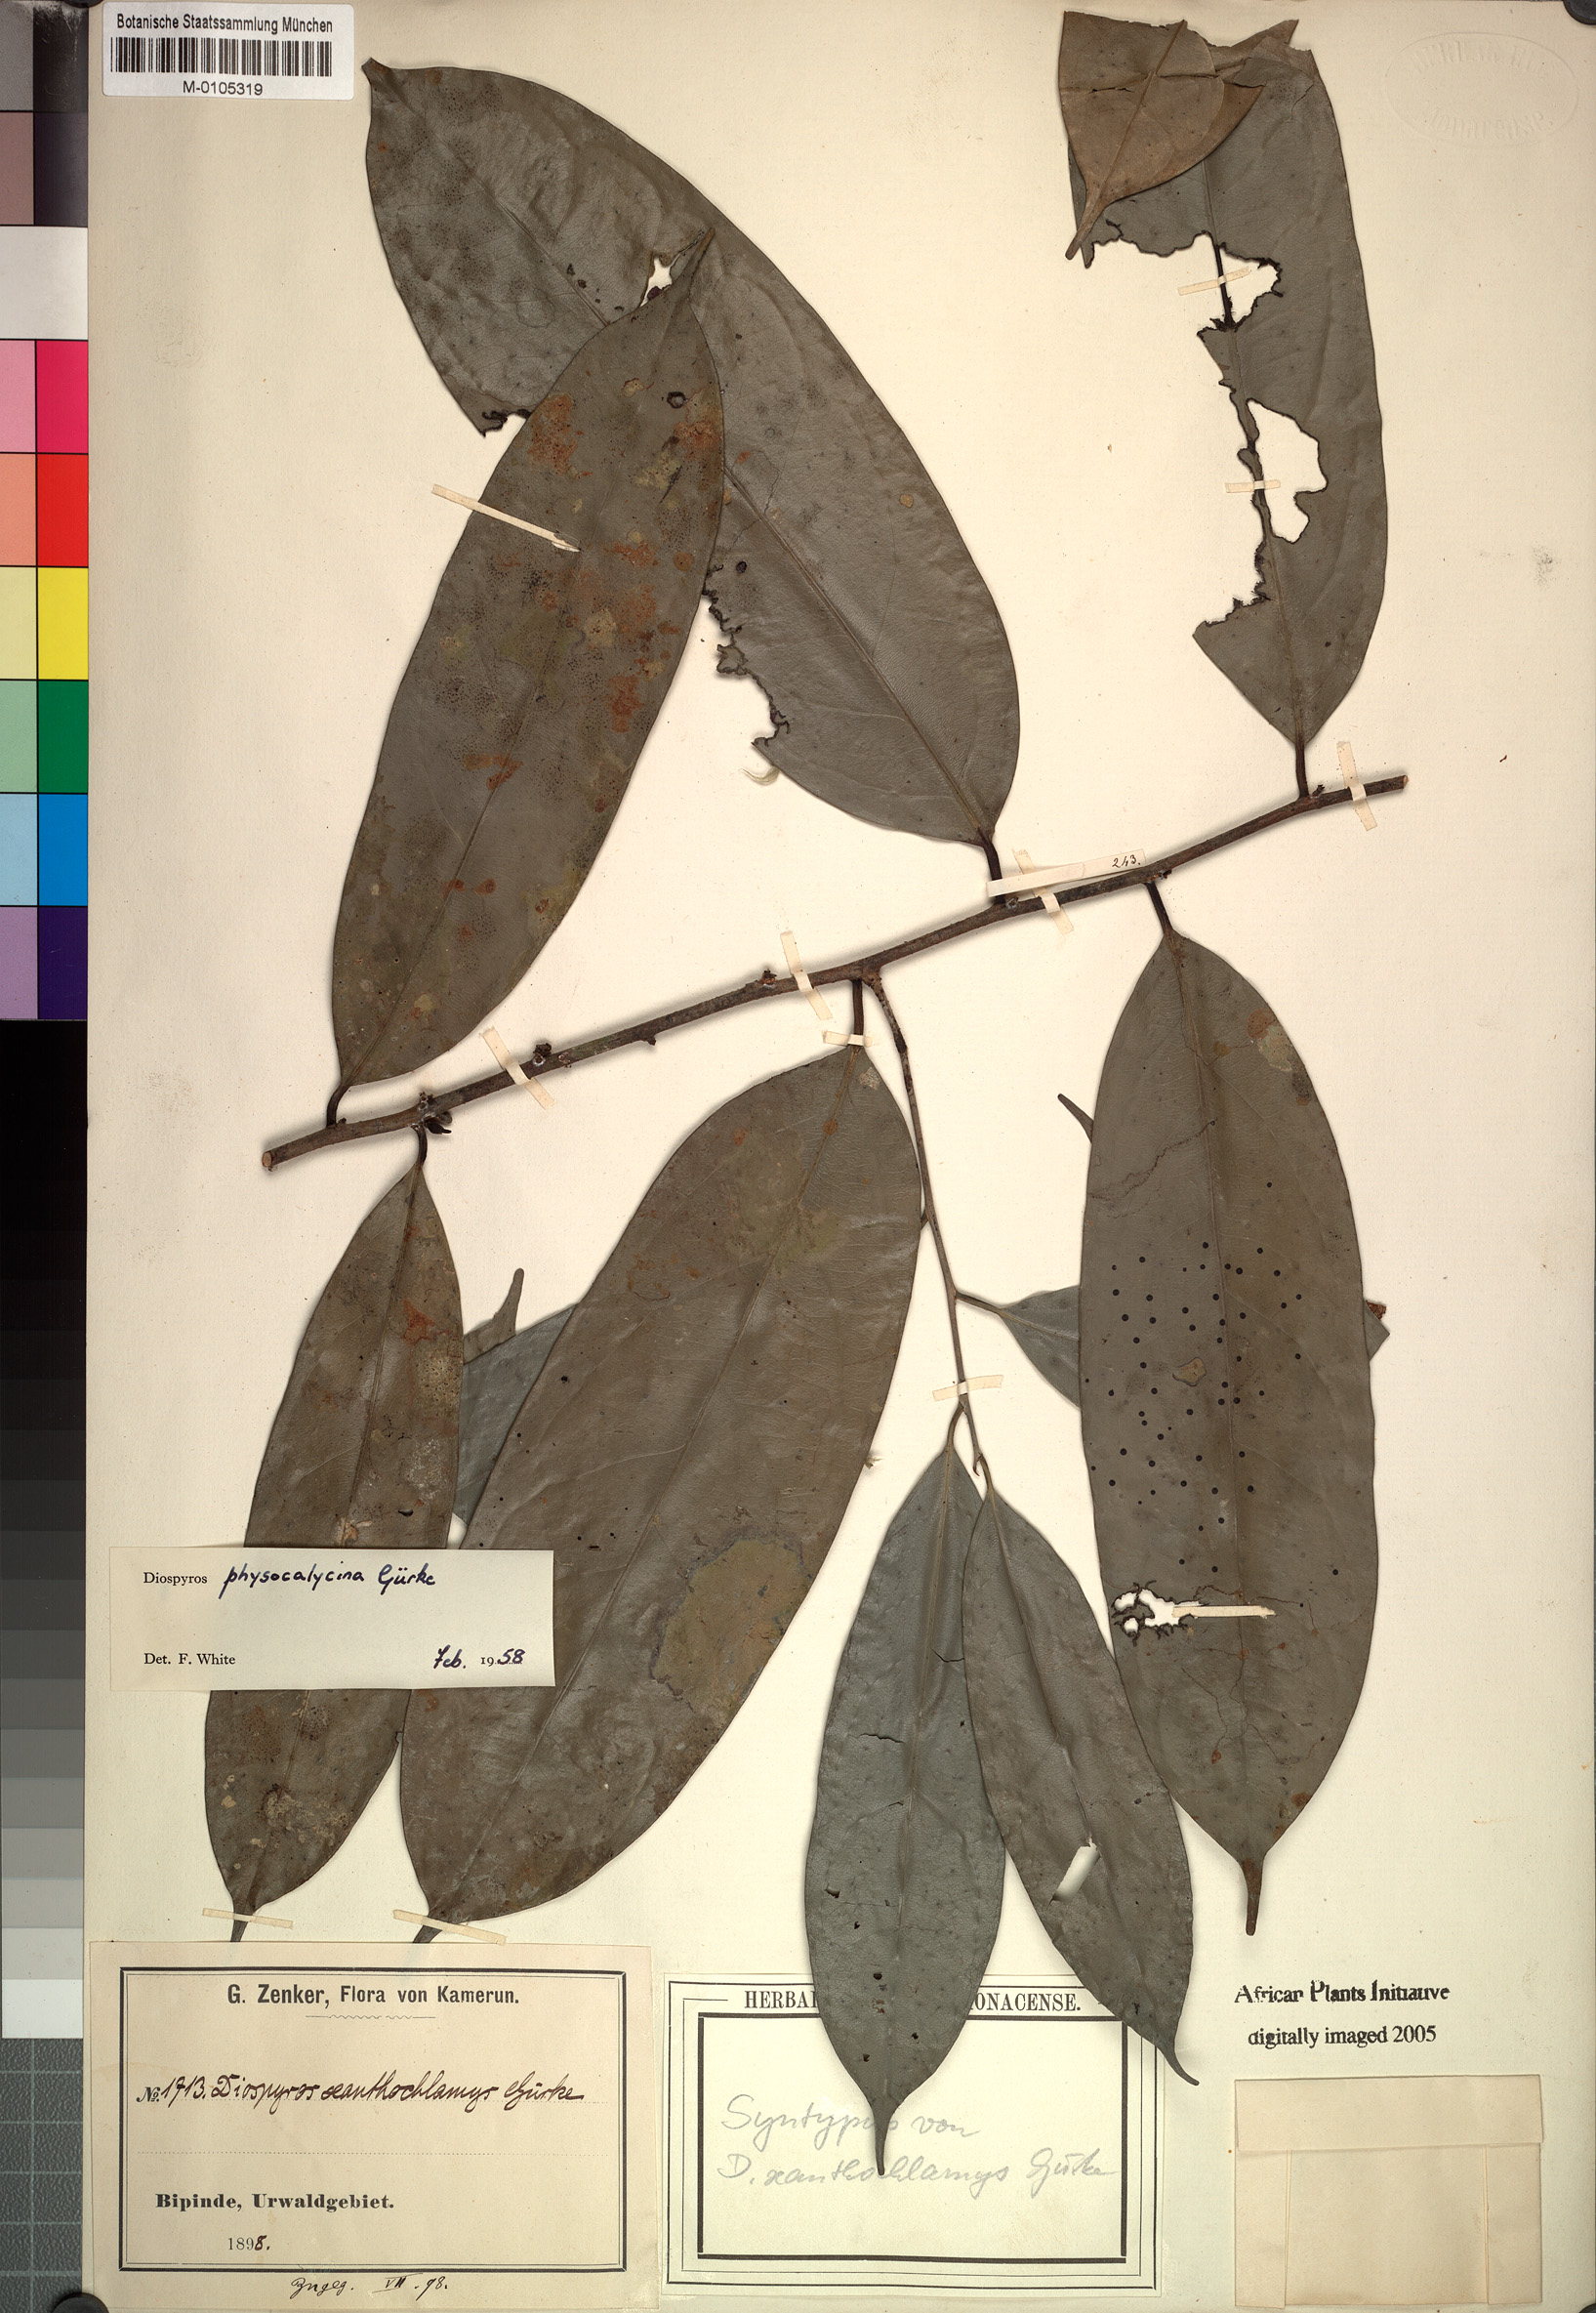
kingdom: Plantae
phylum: Tracheophyta
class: Magnoliopsida
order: Ericales
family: Ebenaceae
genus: Diospyros
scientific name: Diospyros physocalycina
